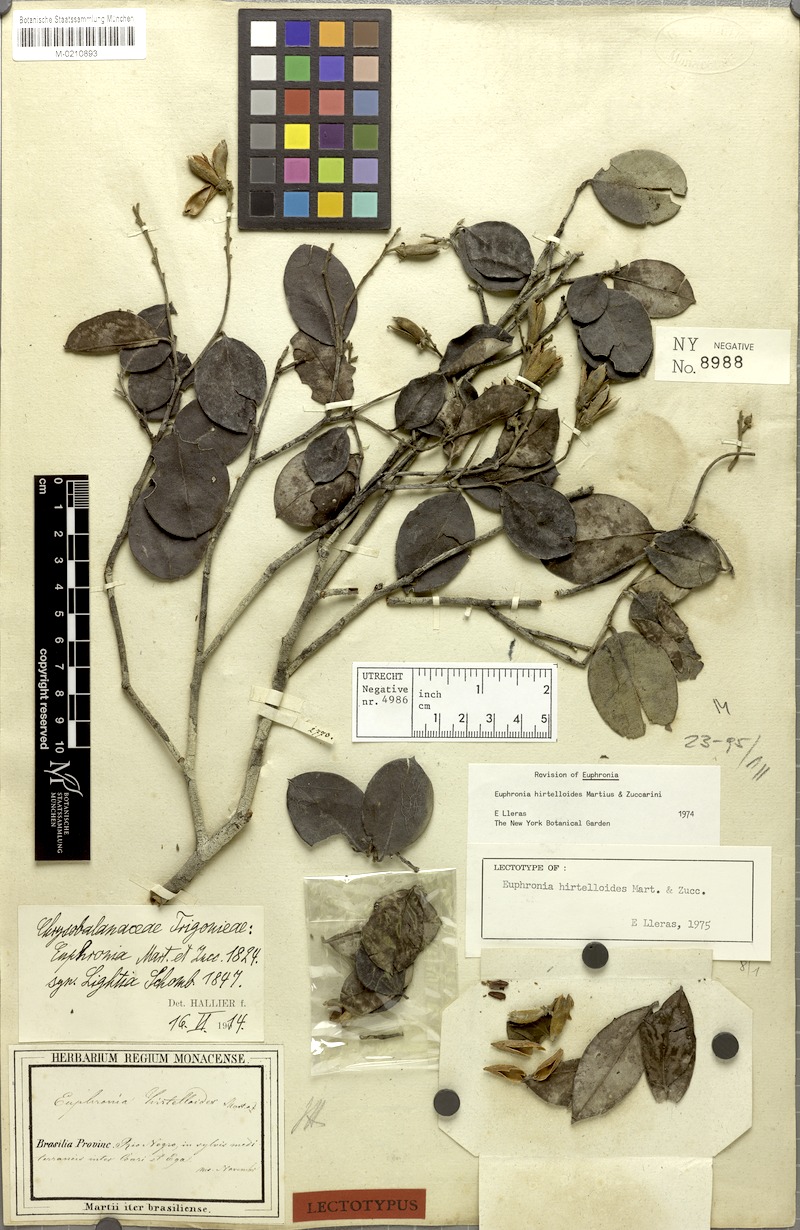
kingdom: Plantae
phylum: Tracheophyta
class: Magnoliopsida
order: Malpighiales
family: Euphroniaceae
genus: Euphronia
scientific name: Euphronia hirtelloides
